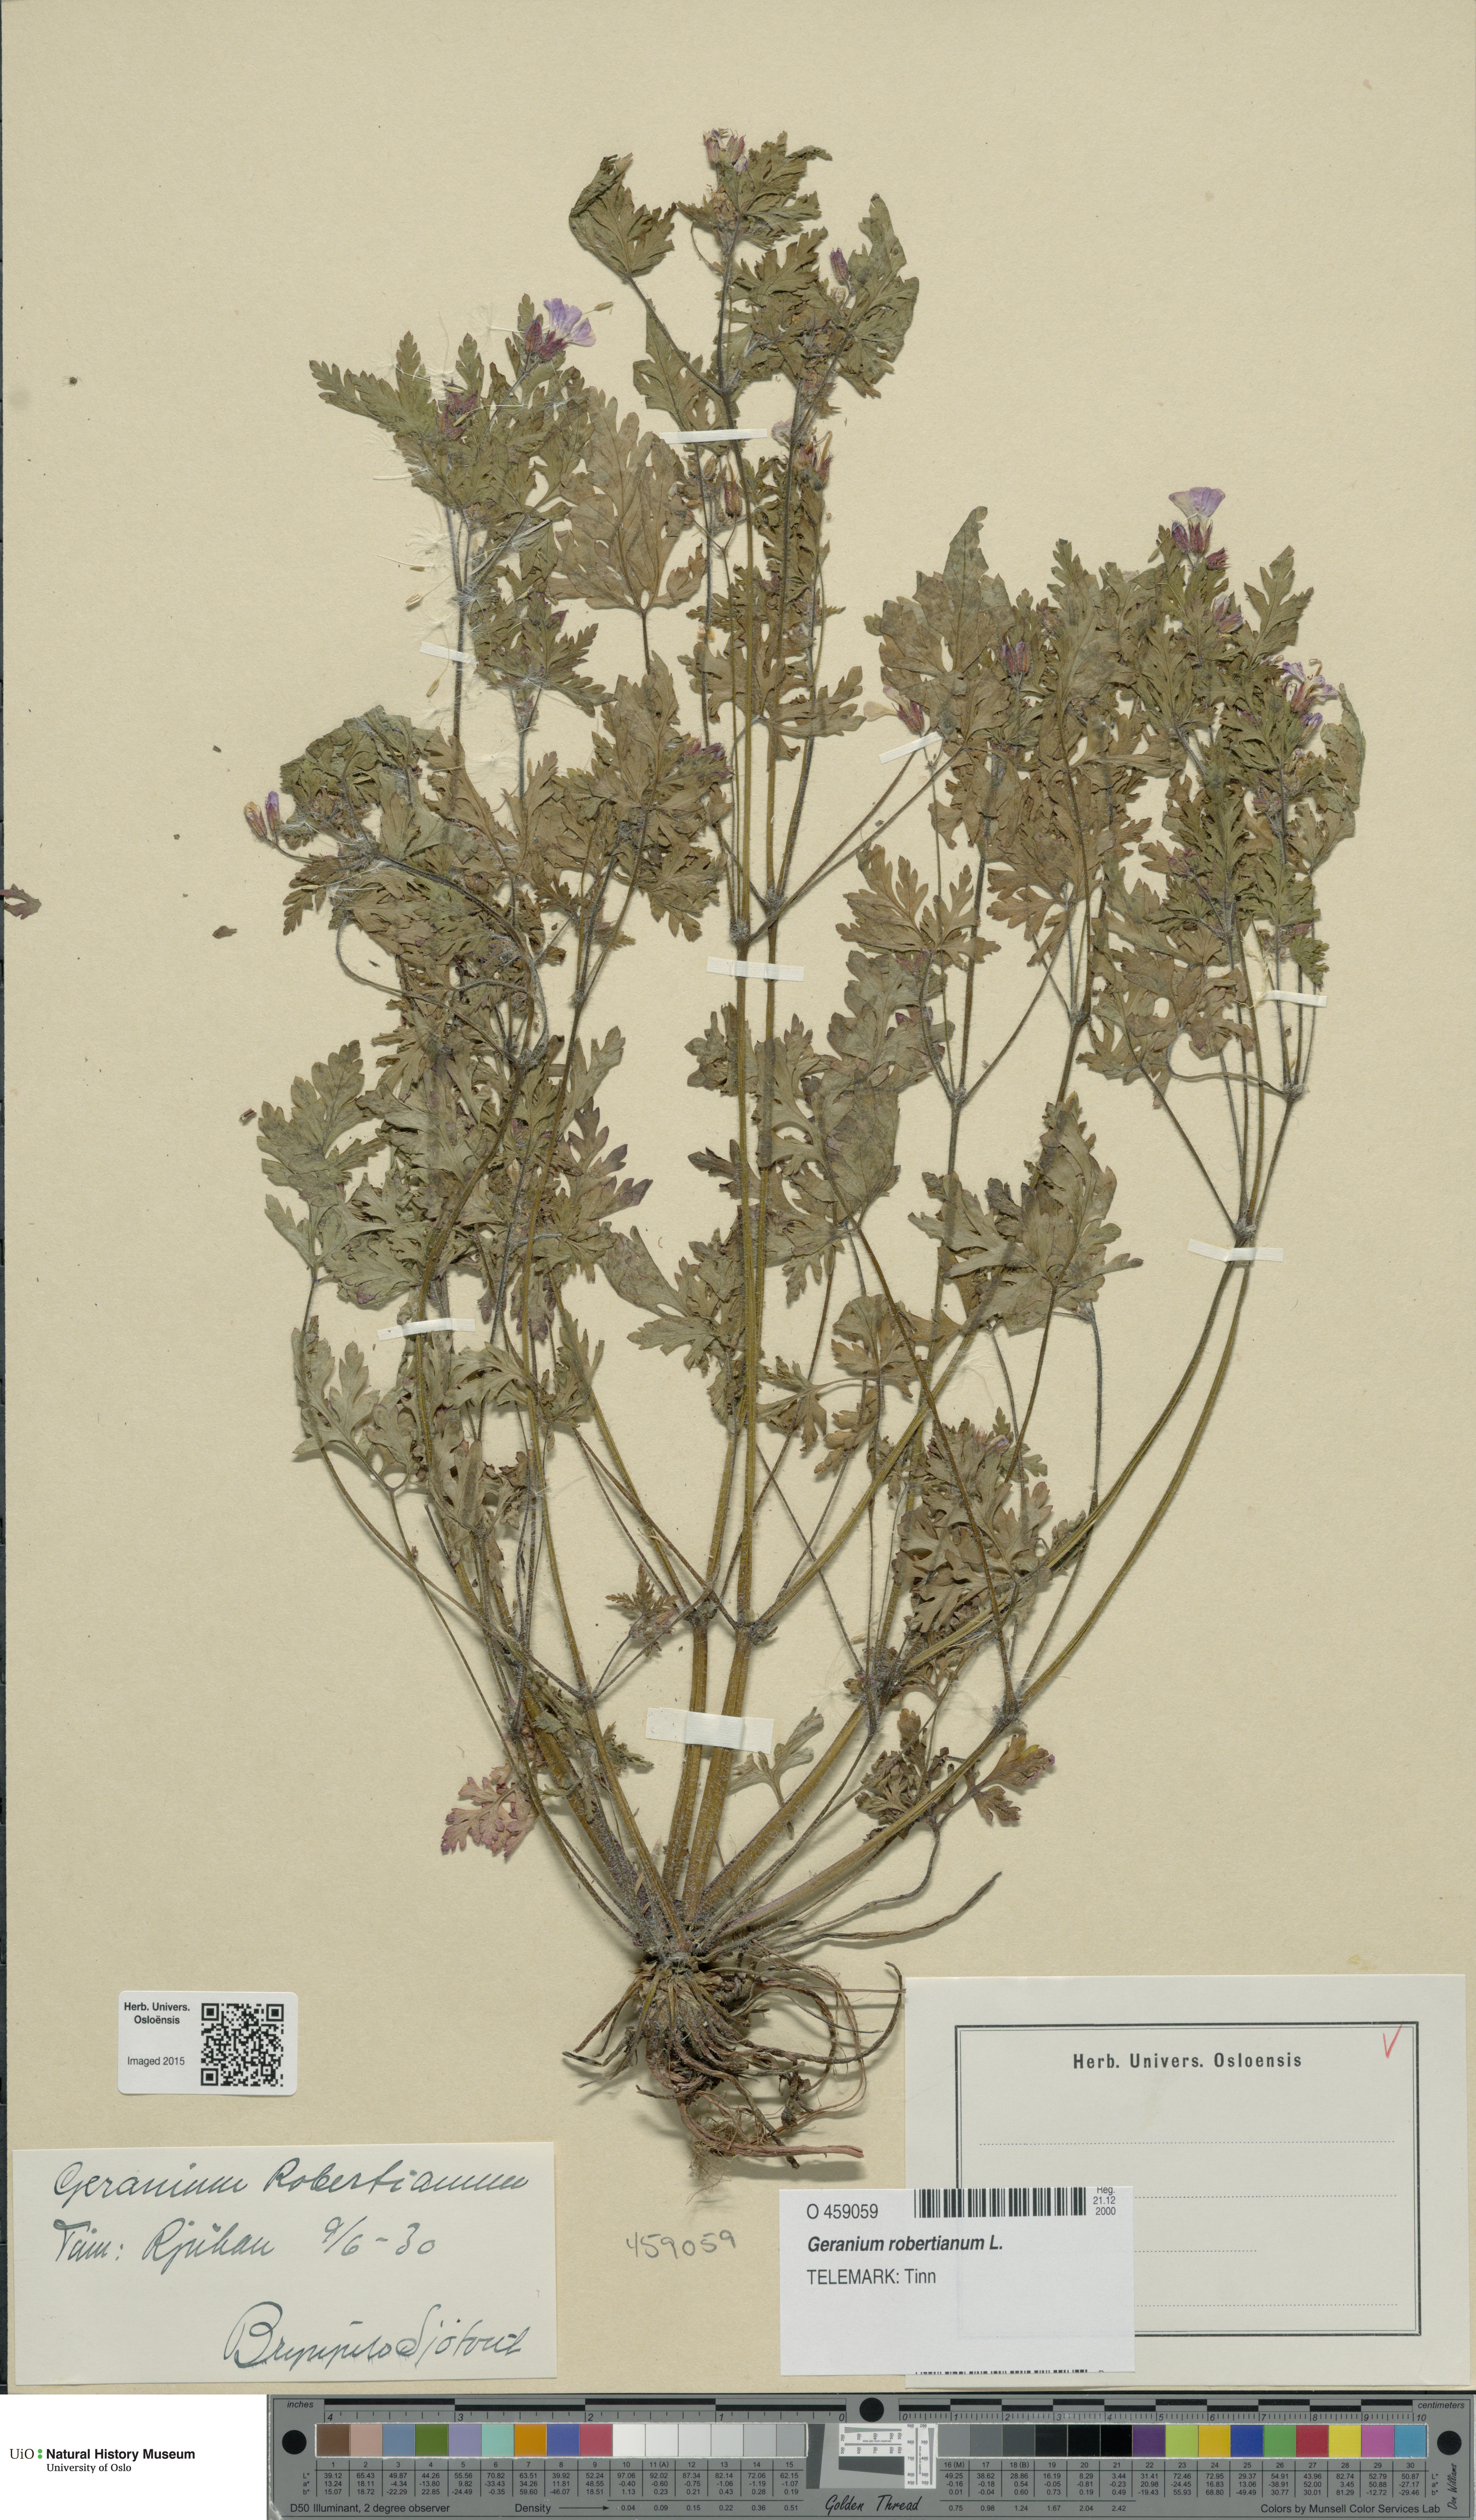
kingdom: Plantae
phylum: Tracheophyta
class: Magnoliopsida
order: Geraniales
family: Geraniaceae
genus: Geranium
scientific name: Geranium robertianum
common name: Herb-robert
